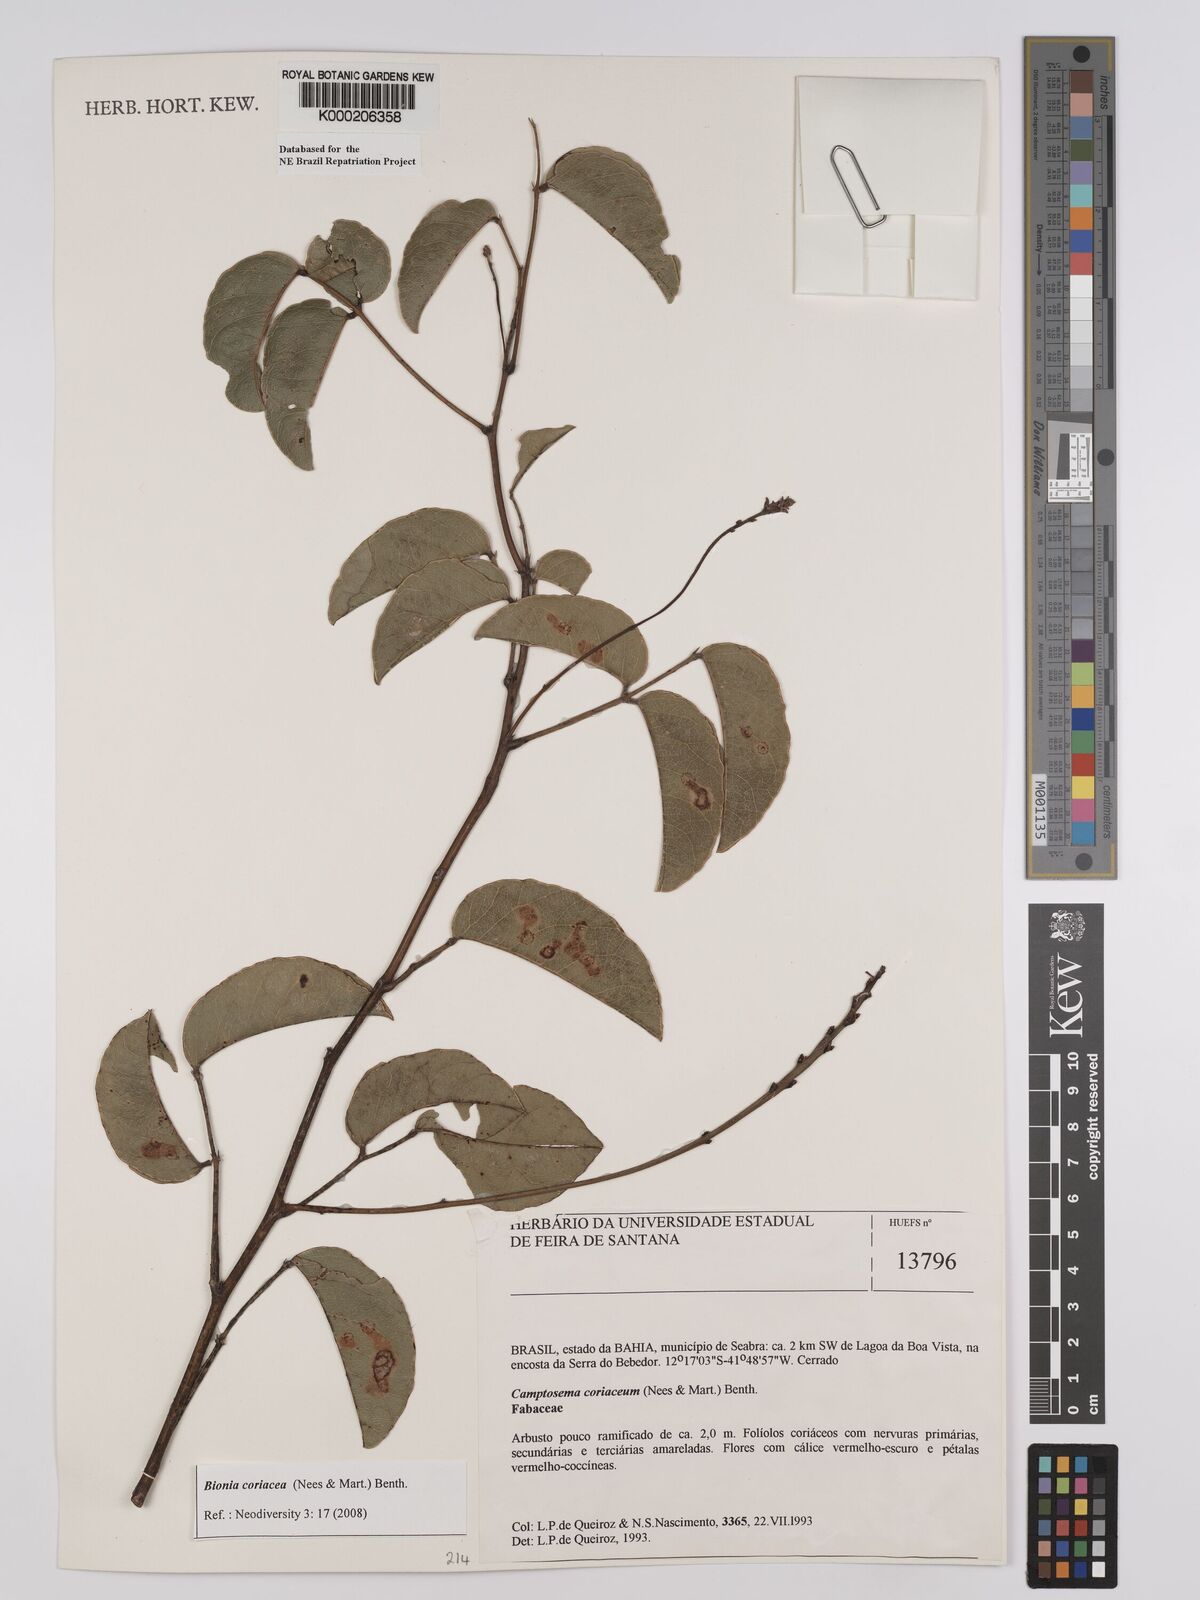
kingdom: Plantae
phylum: Tracheophyta
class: Magnoliopsida
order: Fabales
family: Fabaceae
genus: Camptosema
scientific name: Camptosema coriaceum
